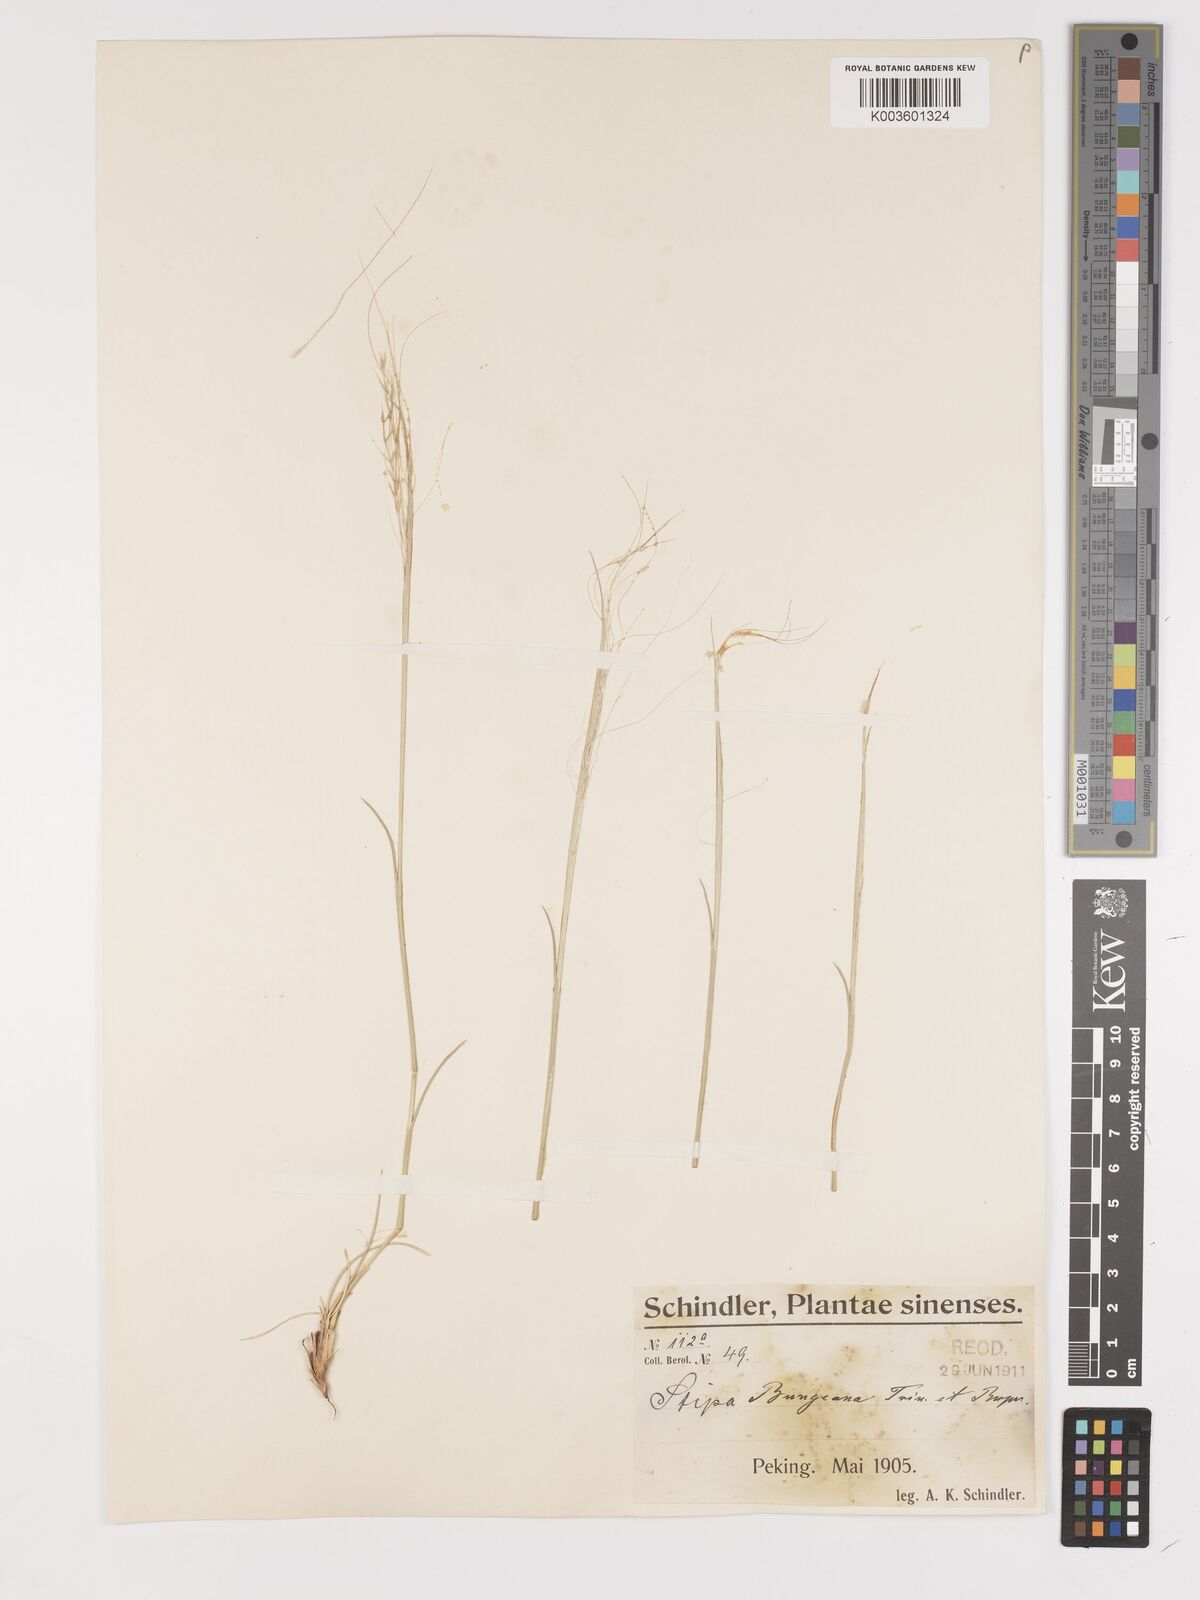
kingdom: Plantae
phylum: Tracheophyta
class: Liliopsida
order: Poales
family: Poaceae
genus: Stipa
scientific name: Stipa bungeana
